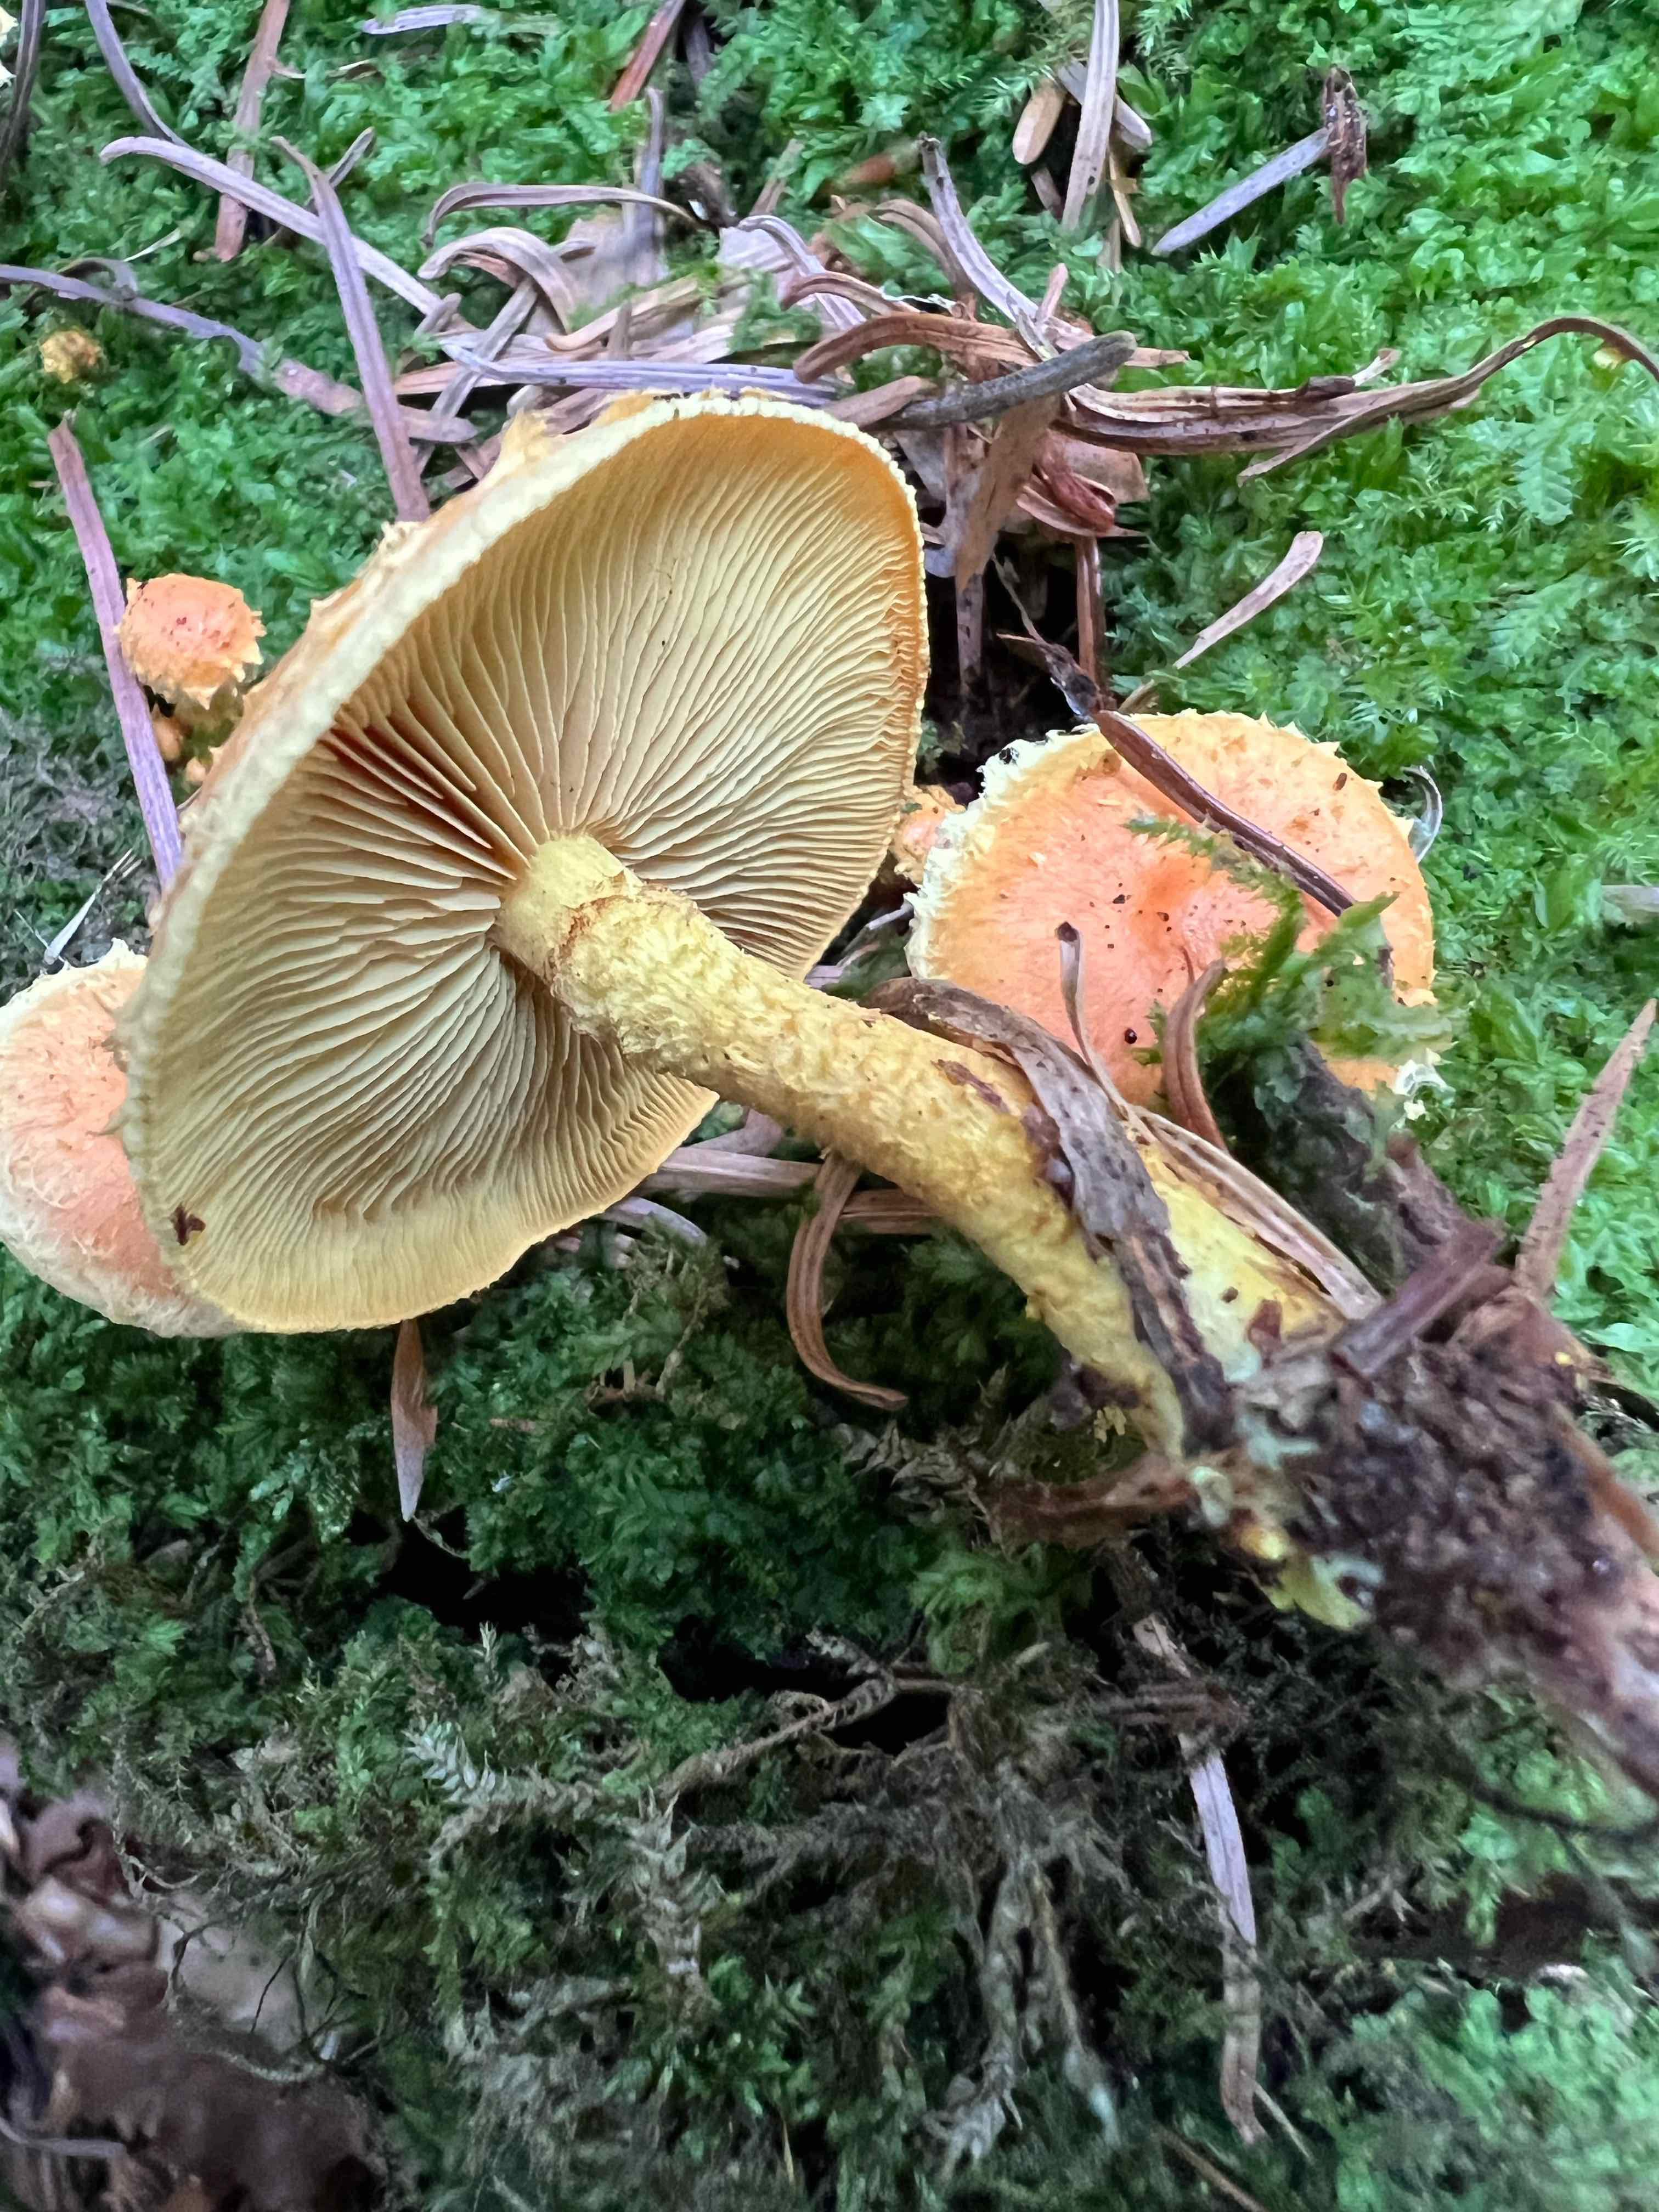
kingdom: Fungi
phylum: Basidiomycota
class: Agaricomycetes
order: Agaricales
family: Strophariaceae
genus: Pholiota
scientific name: Pholiota flammans
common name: flamme-skælhat
